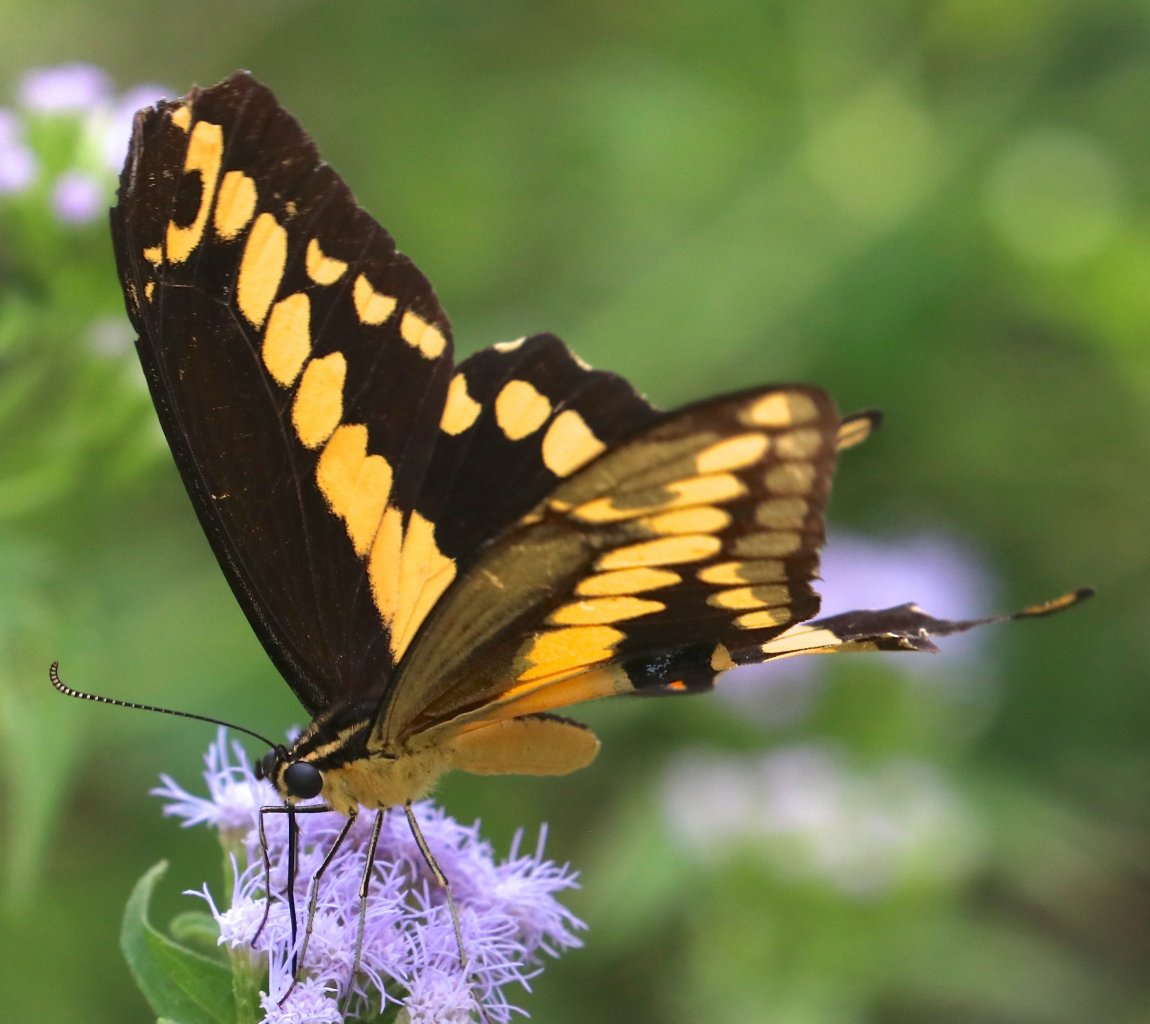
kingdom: Animalia
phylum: Arthropoda
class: Insecta
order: Lepidoptera
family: Papilionidae
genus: Papilio
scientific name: Papilio rumiko
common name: Western Giant Swallowtail
